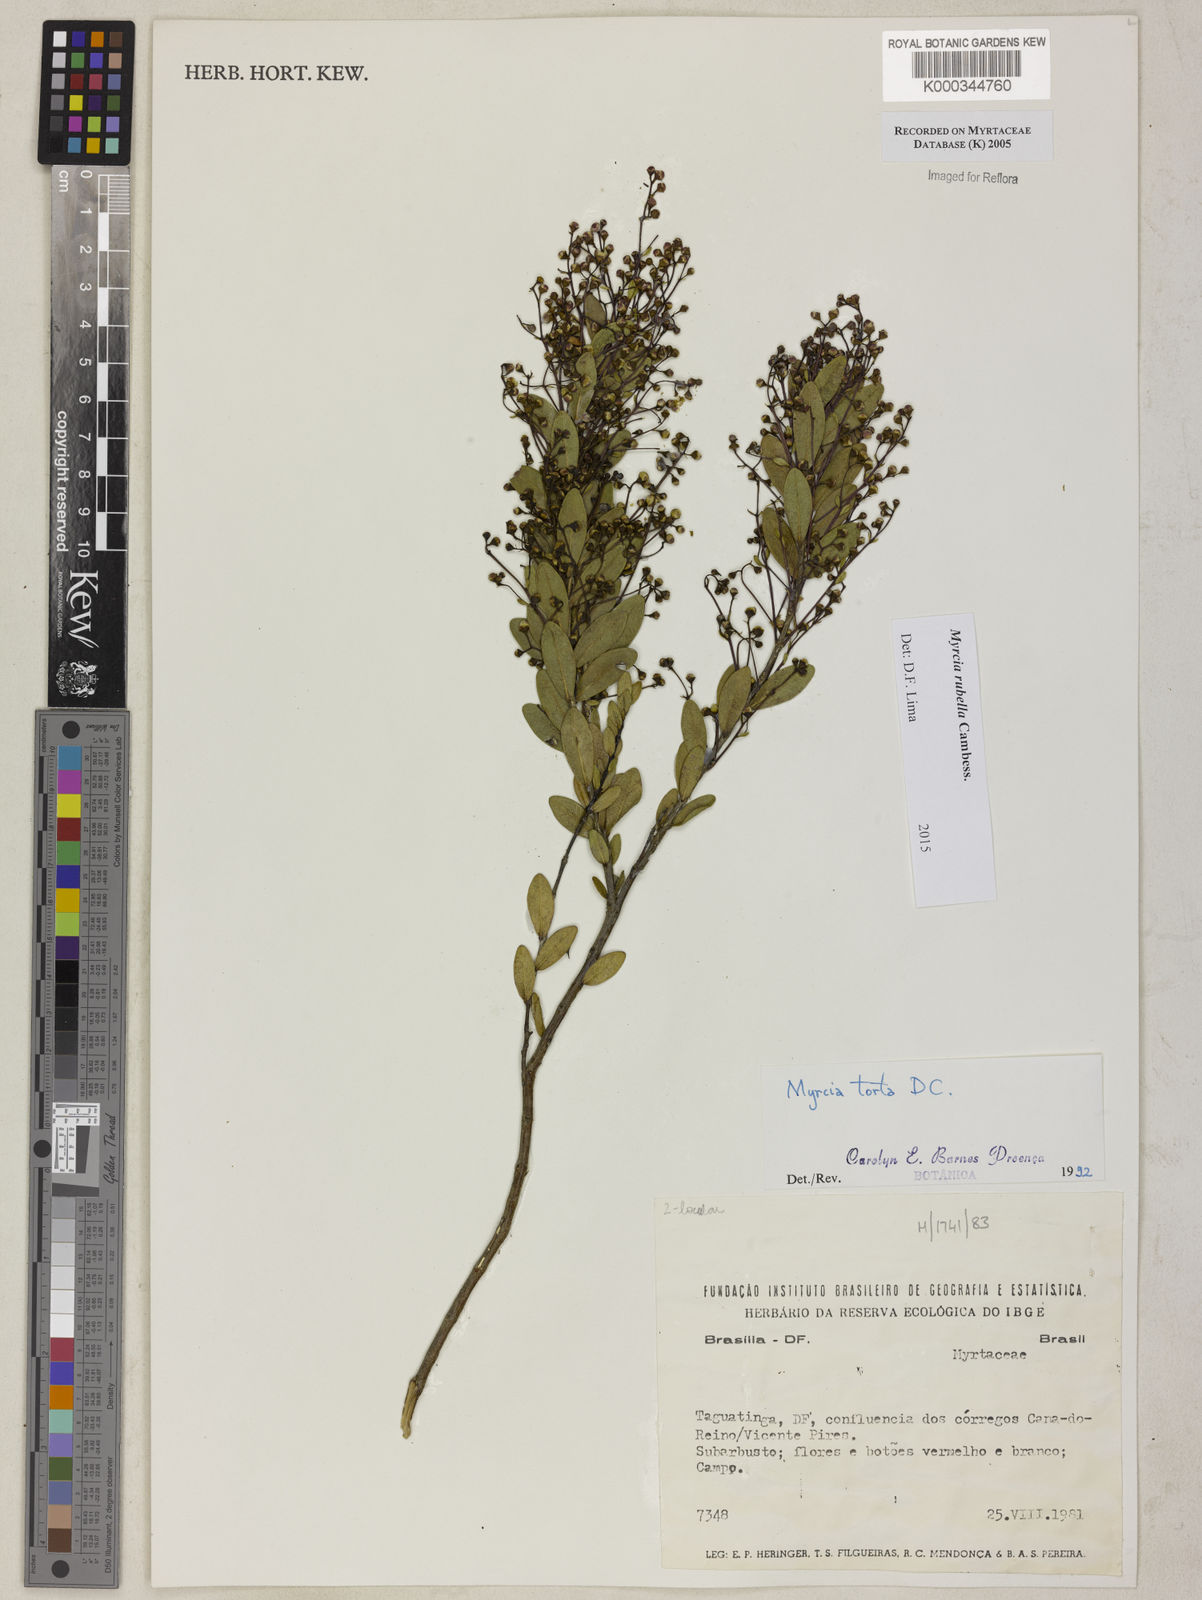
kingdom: Plantae
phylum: Tracheophyta
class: Magnoliopsida
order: Myrtales
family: Myrtaceae
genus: Myrcia
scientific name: Myrcia guianensis
